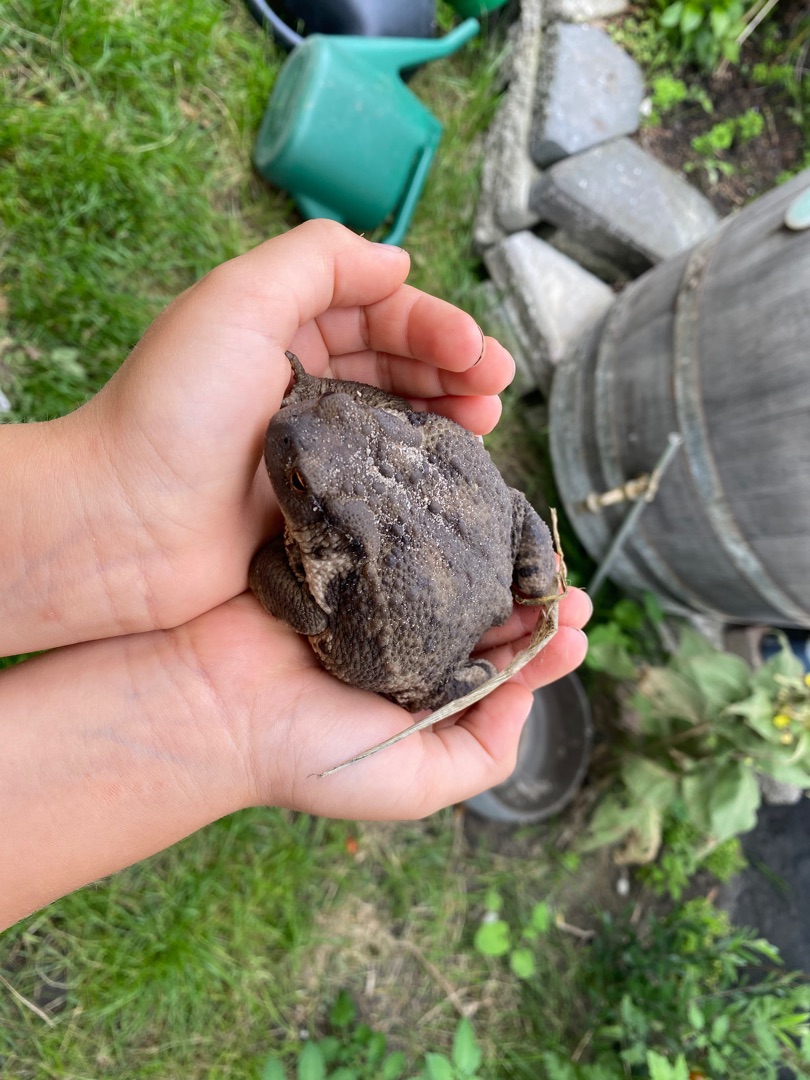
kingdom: Animalia
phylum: Chordata
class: Amphibia
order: Anura
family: Bufonidae
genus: Bufo
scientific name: Bufo bufo
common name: Skrubtudse
